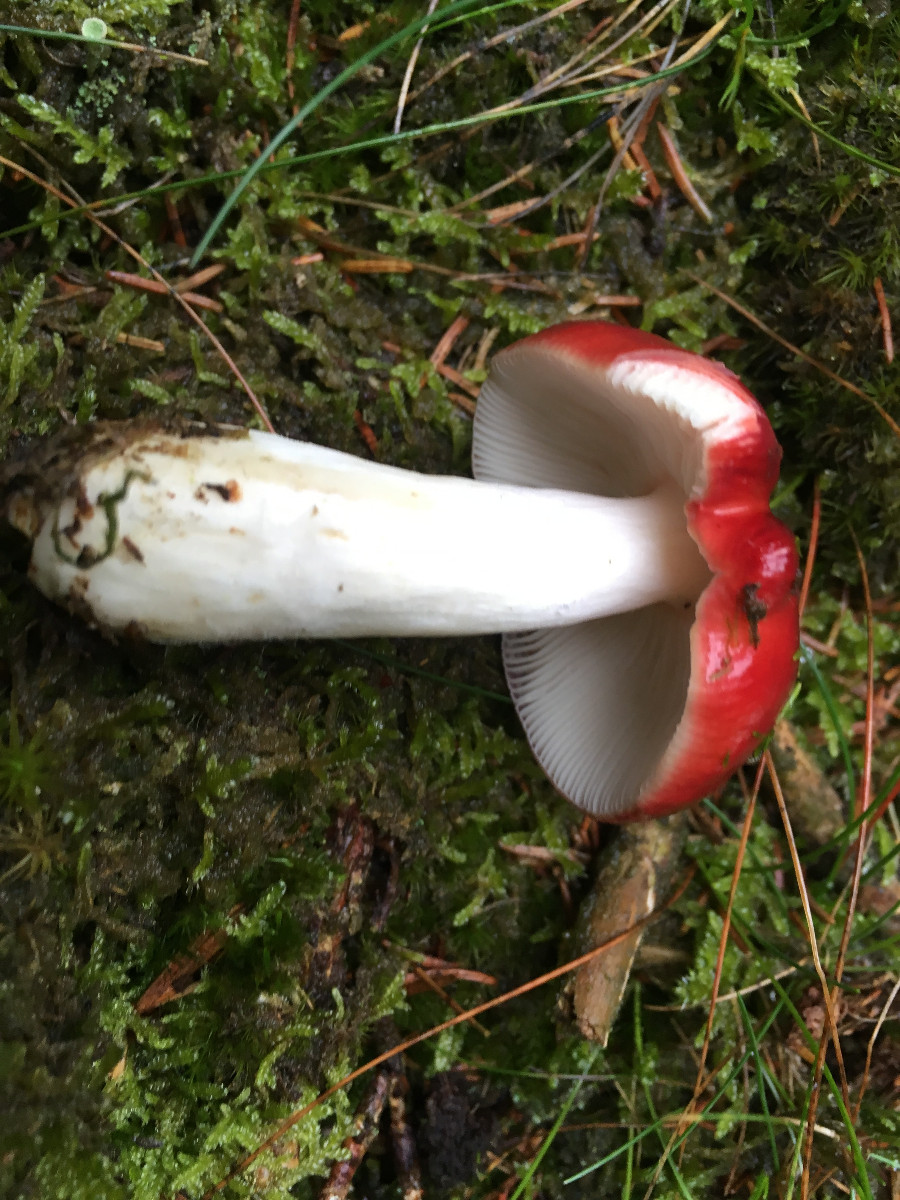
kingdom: Fungi
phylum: Basidiomycota
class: Agaricomycetes
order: Russulales
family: Russulaceae
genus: Russula
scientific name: Russula emetica
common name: stor gift-skørhat
